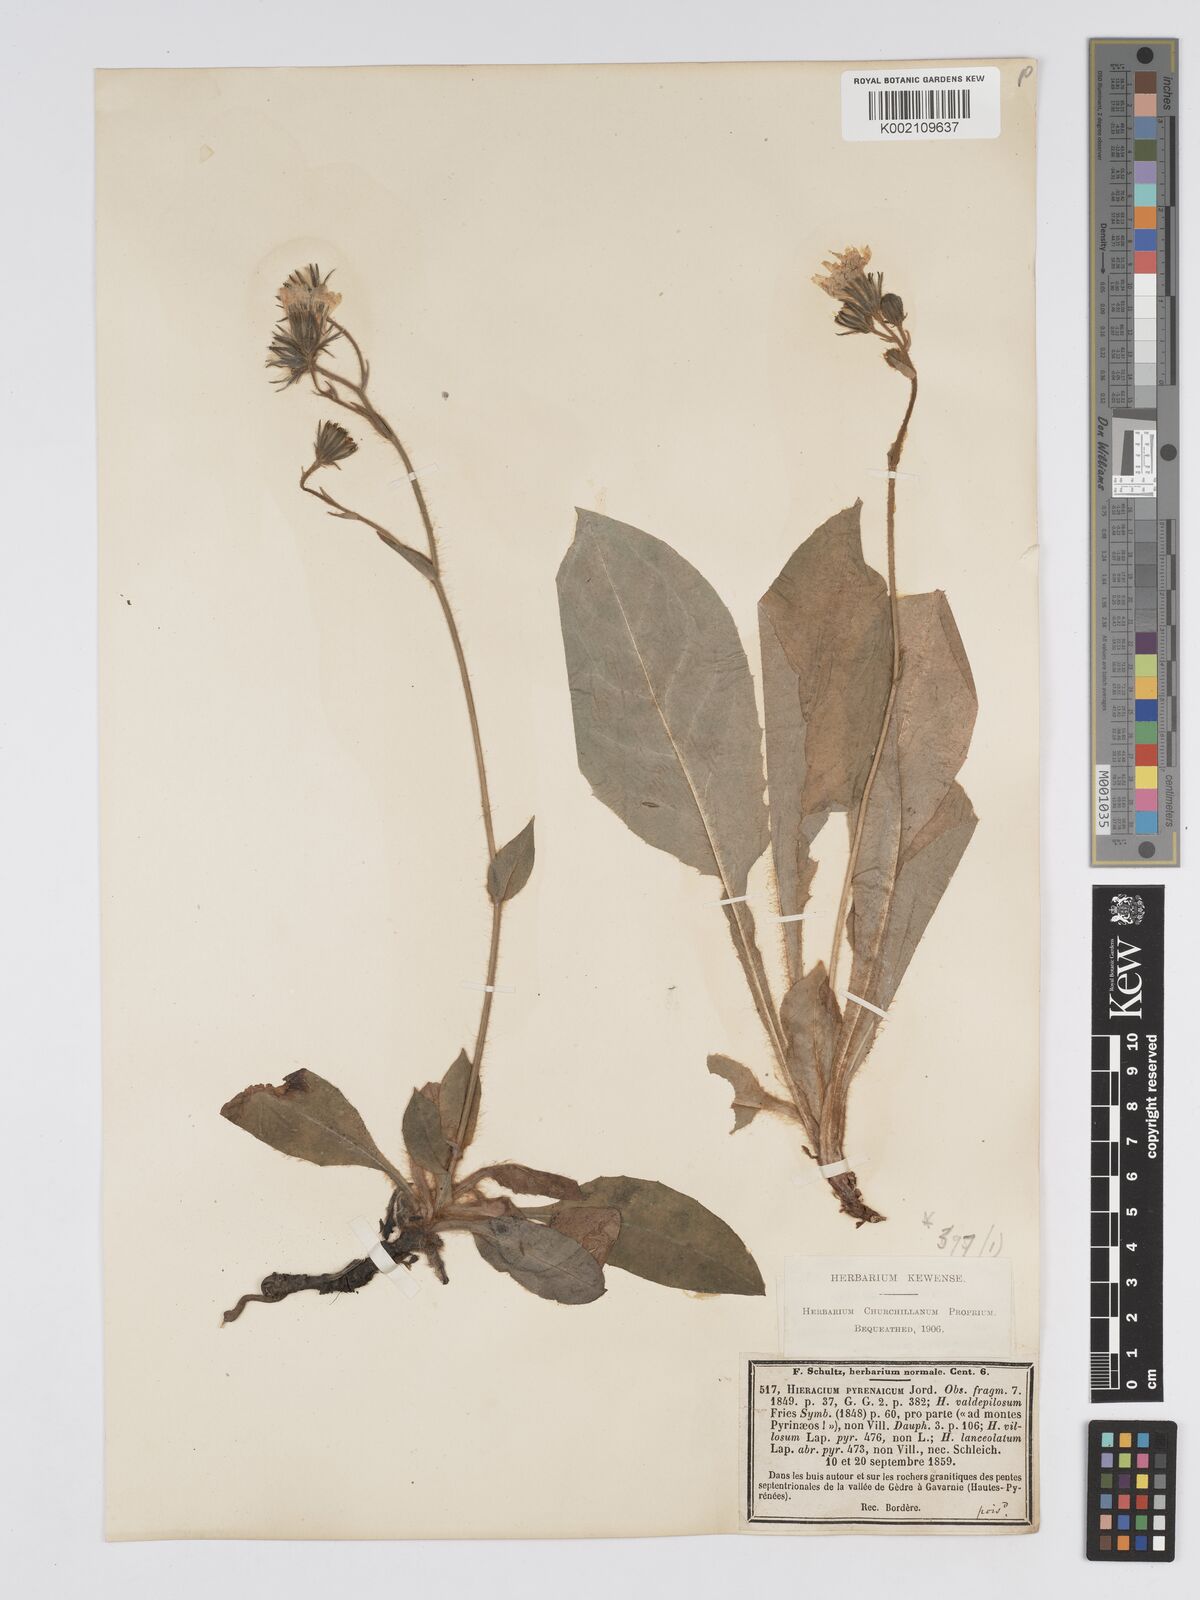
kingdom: Plantae
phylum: Tracheophyta
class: Magnoliopsida
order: Asterales
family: Asteraceae
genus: Hieracium
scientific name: Hieracium nobile
